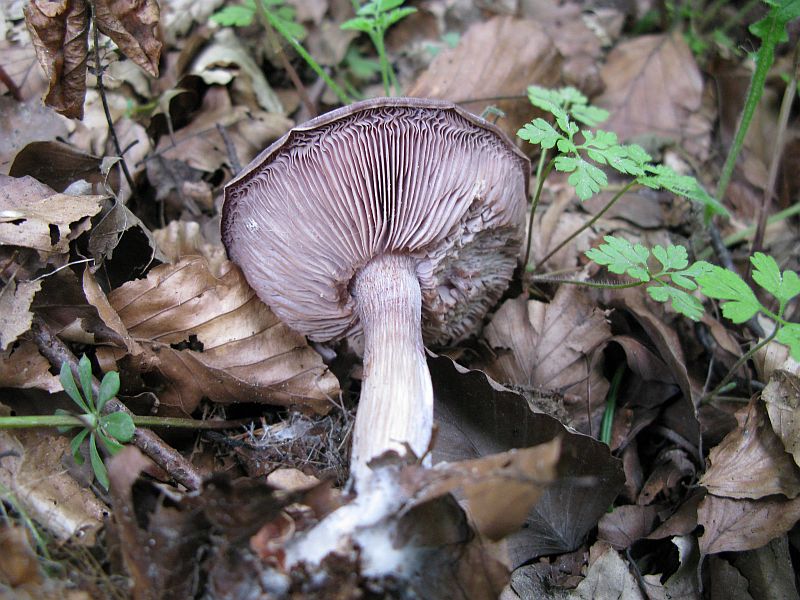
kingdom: Fungi
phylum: Basidiomycota
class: Agaricomycetes
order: Agaricales
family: Tricholomataceae
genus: Lepista
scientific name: Lepista nuda
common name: violet hekseringshat
